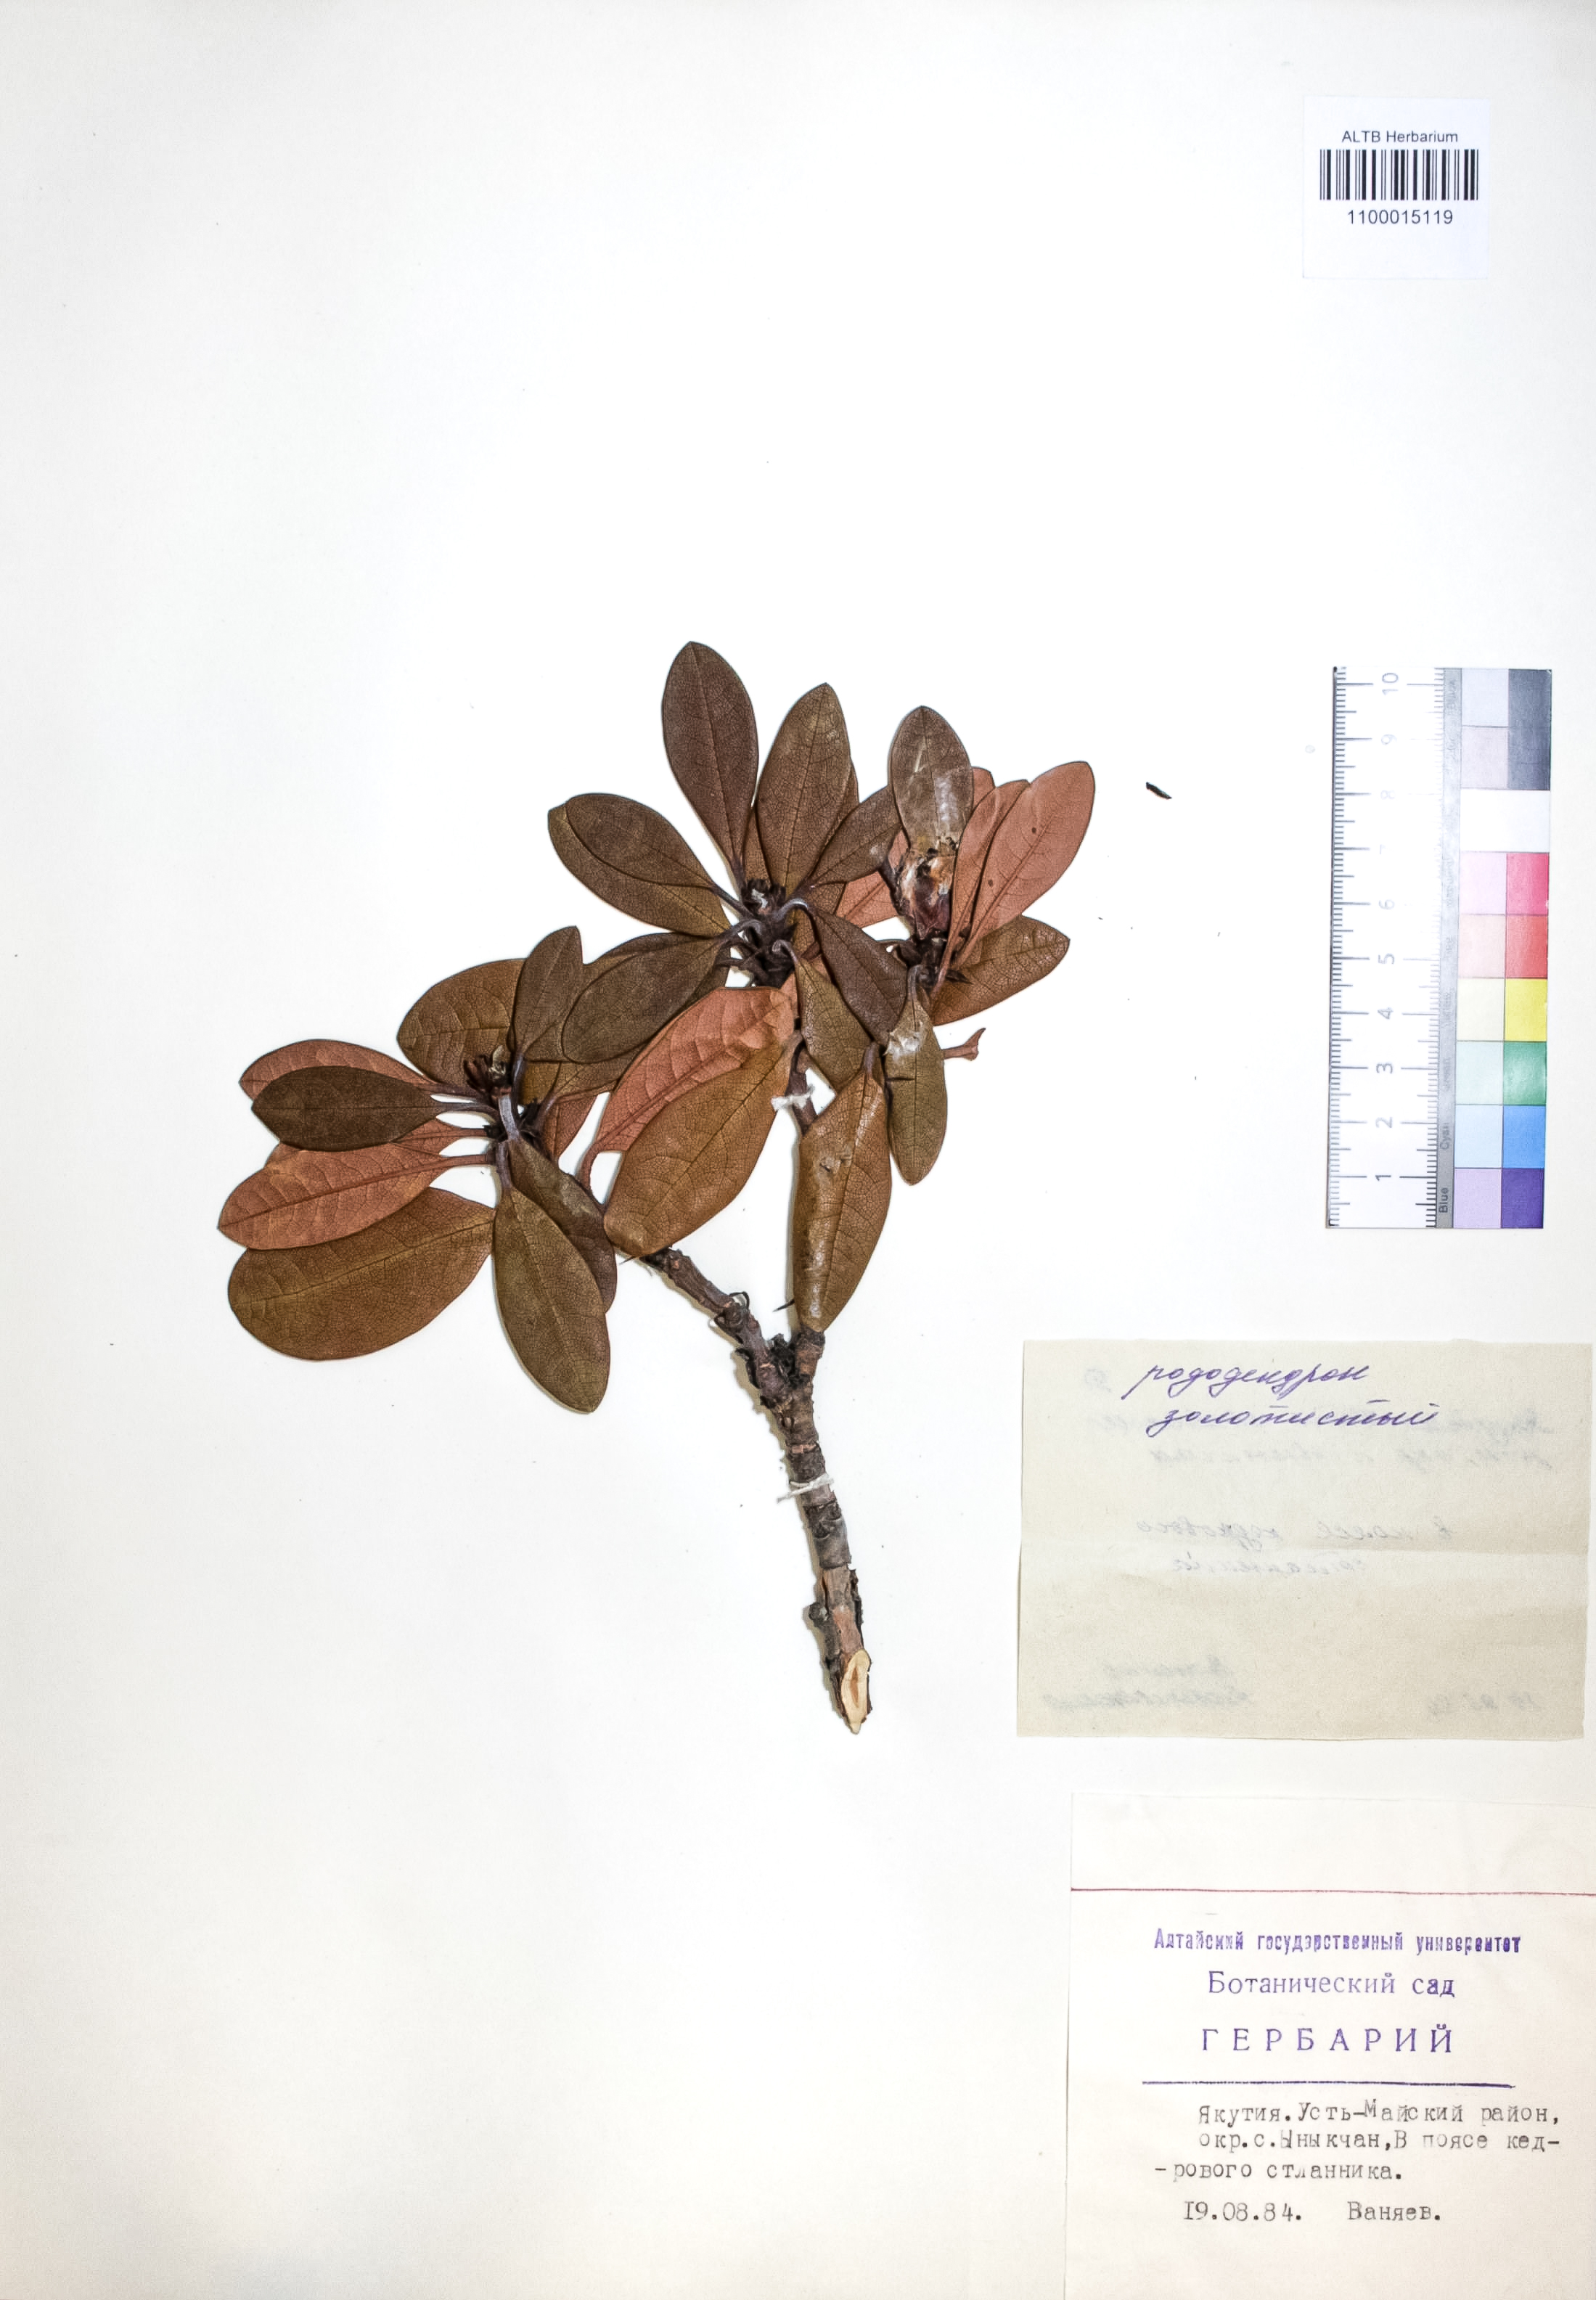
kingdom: Plantae
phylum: Tracheophyta
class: Magnoliopsida
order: Ericales
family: Ericaceae
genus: Rhododendron
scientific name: Rhododendron aureum
